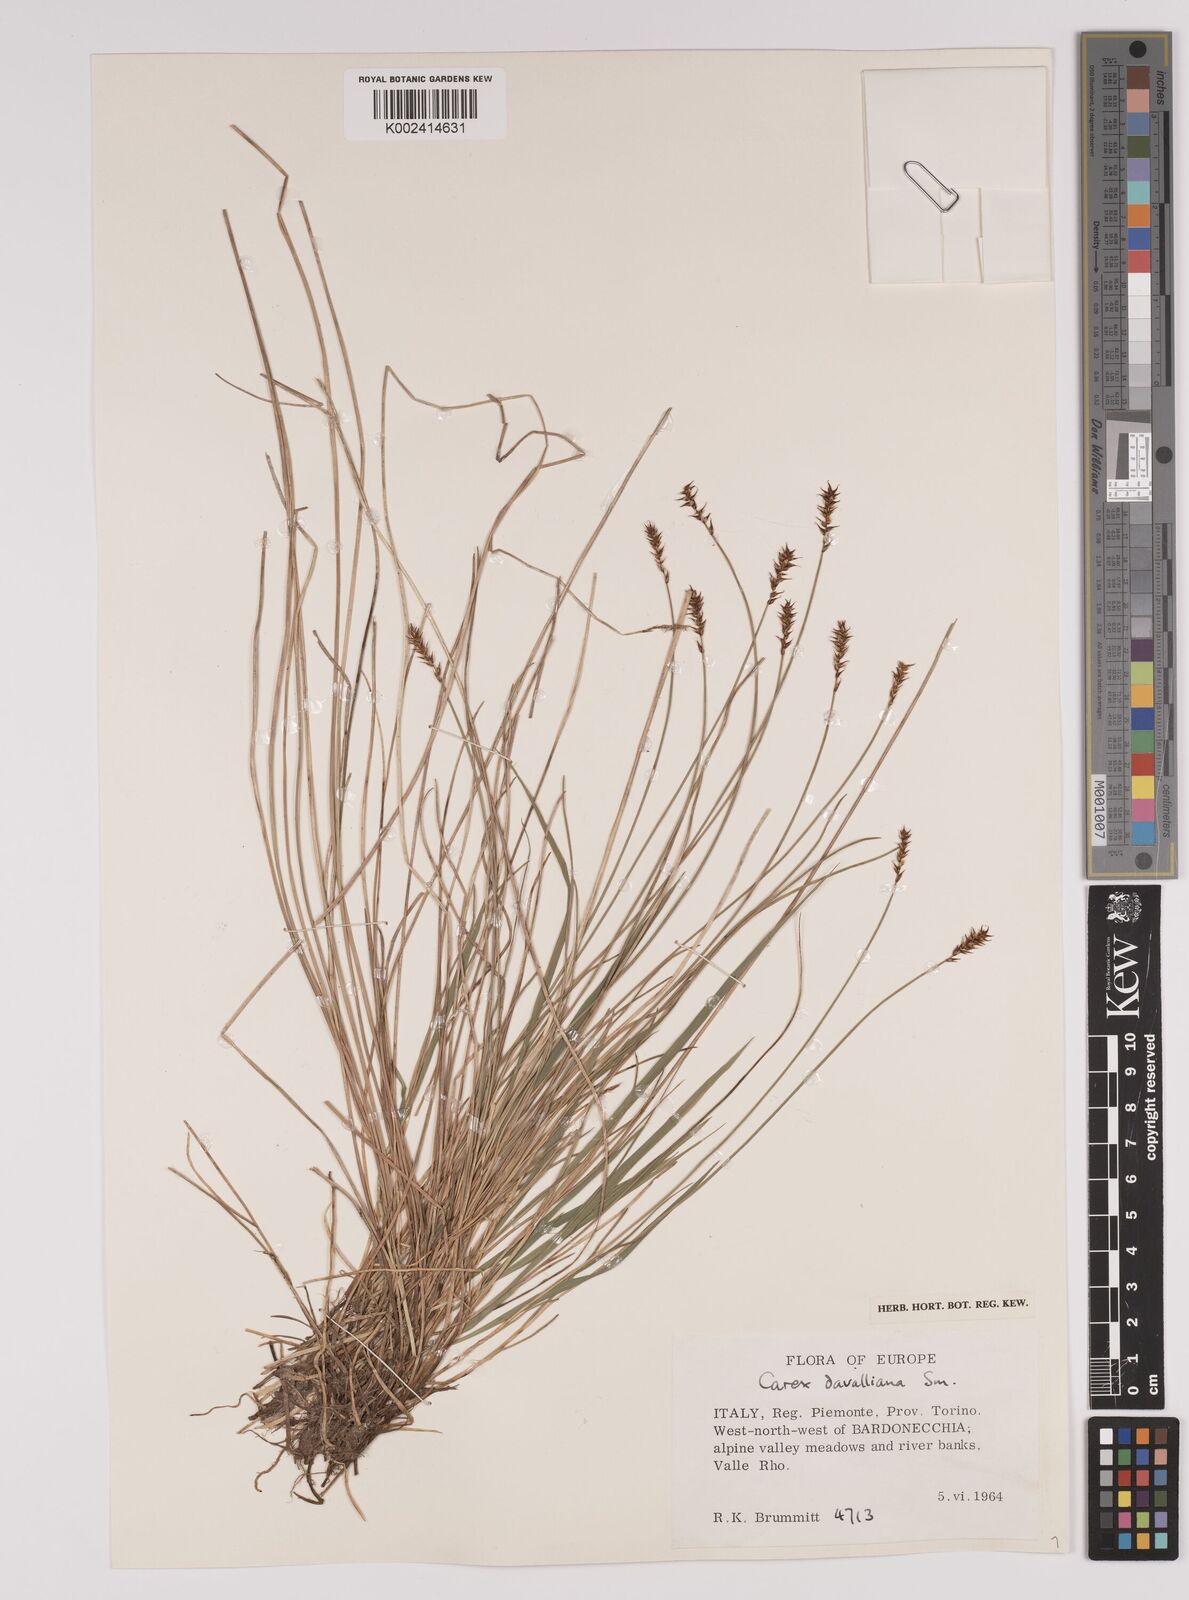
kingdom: Plantae
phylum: Tracheophyta
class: Liliopsida
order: Poales
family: Cyperaceae
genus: Carex
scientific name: Carex davalliana
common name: Davall's sedge
